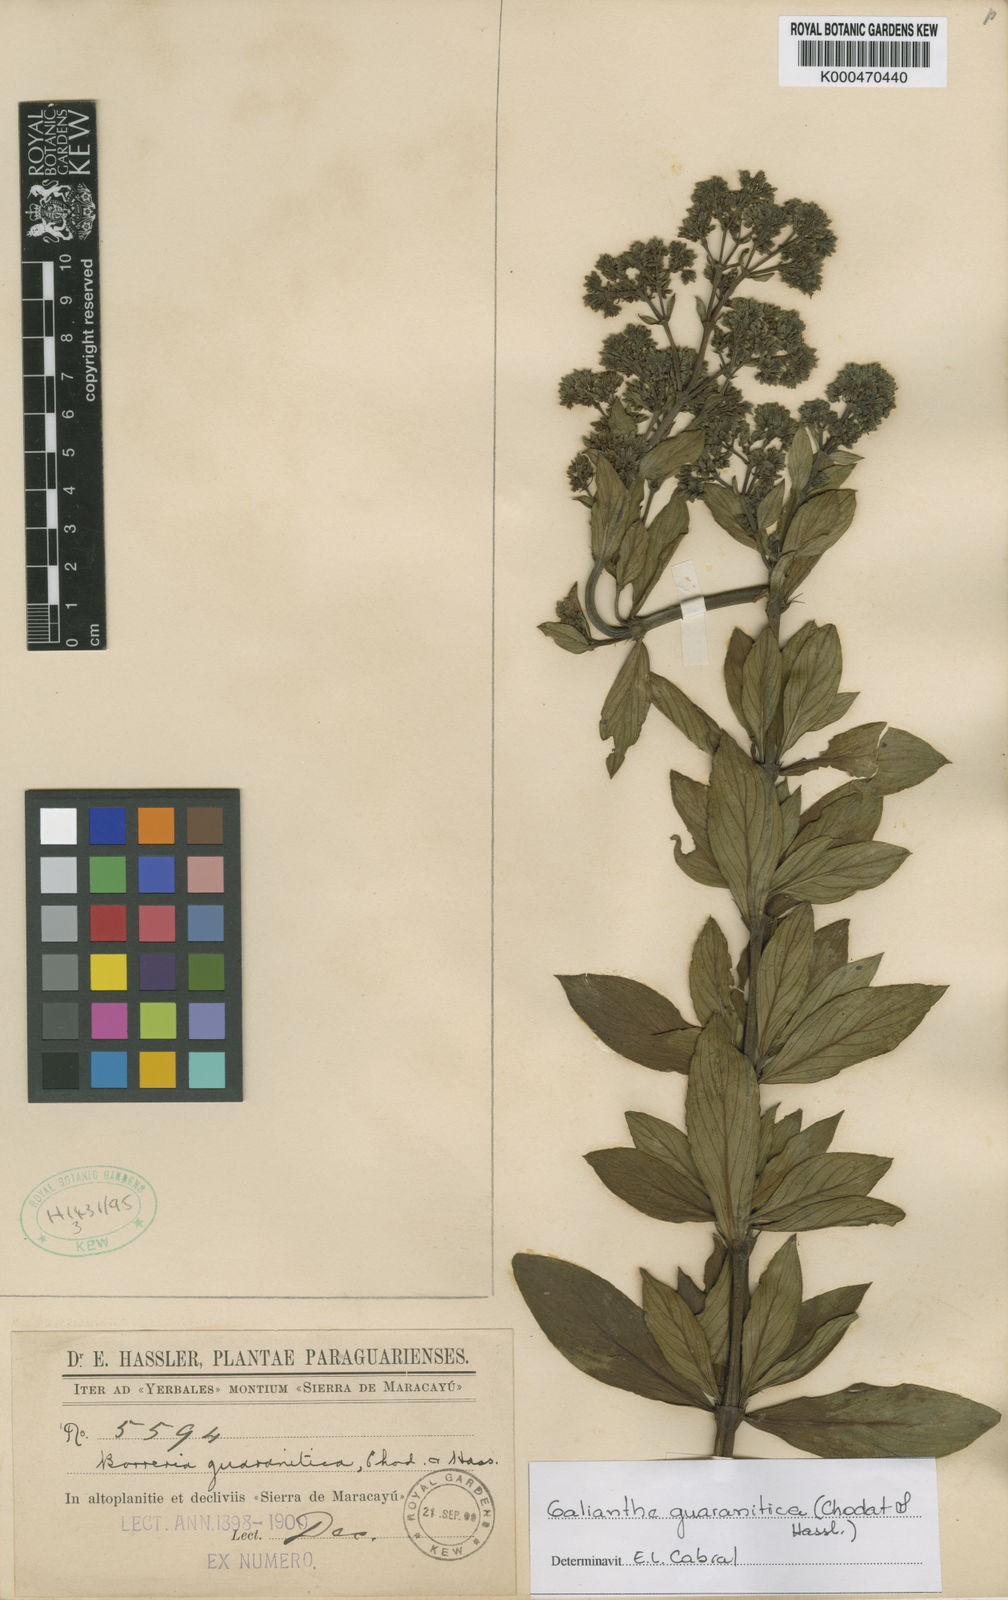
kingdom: Plantae
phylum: Tracheophyta
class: Magnoliopsida
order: Gentianales
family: Rubiaceae
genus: Galianthe
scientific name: Galianthe guaranitica
